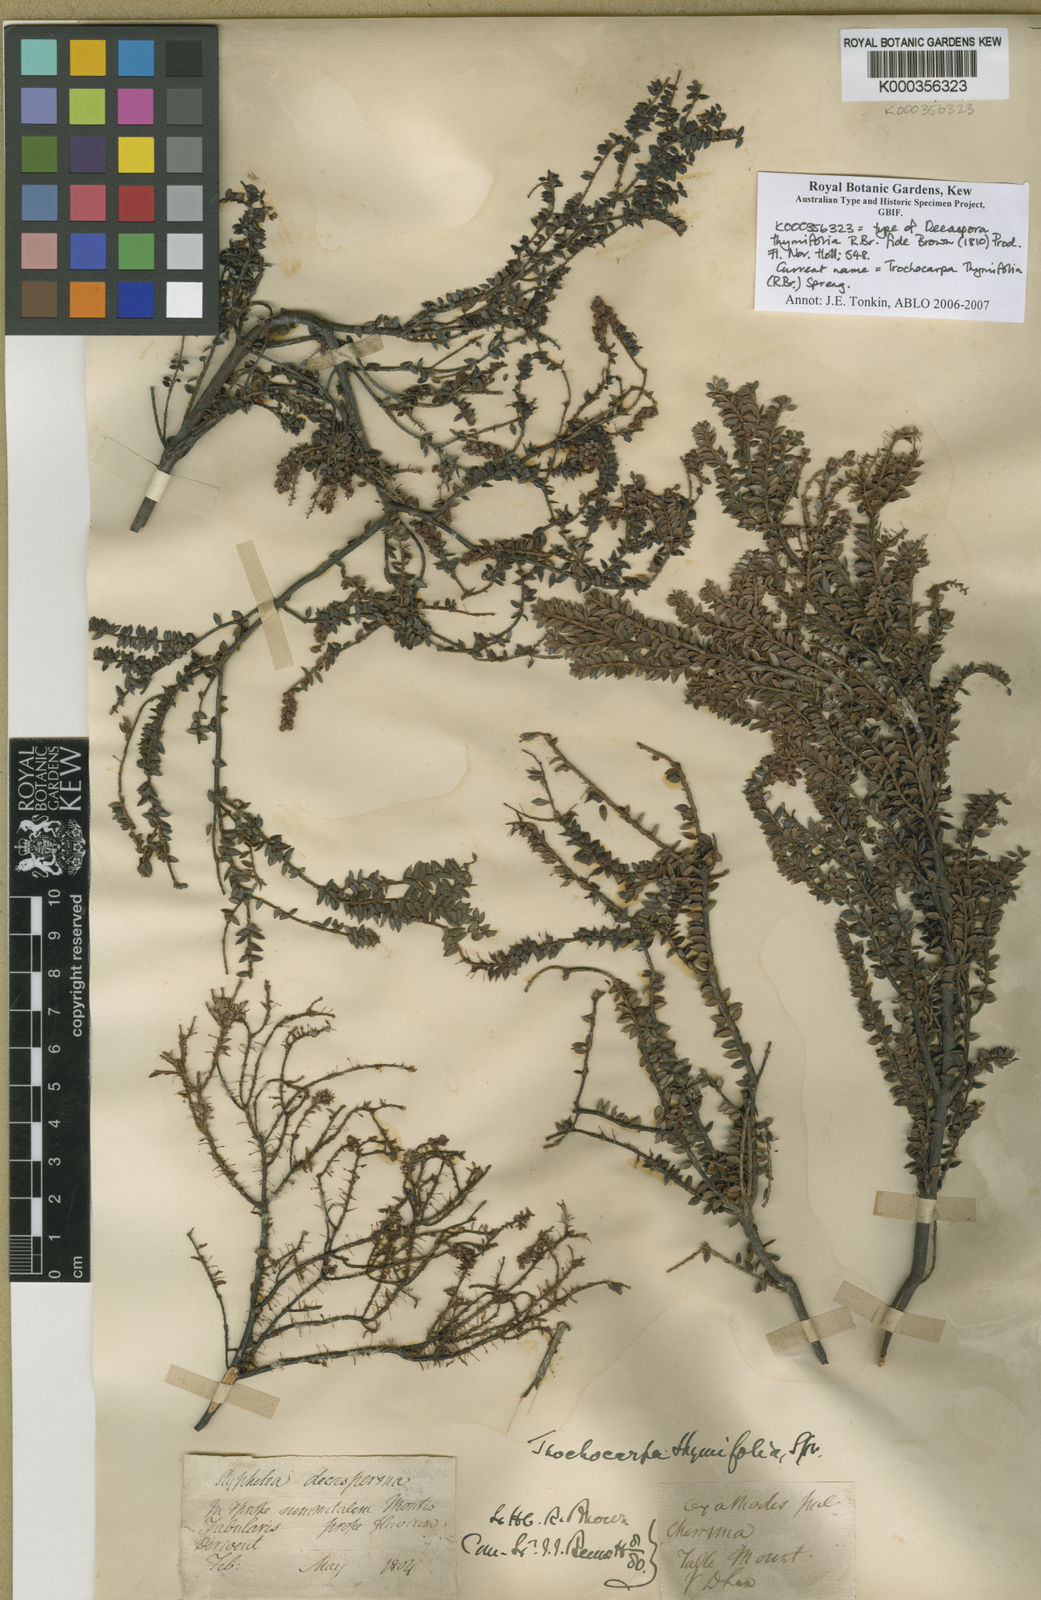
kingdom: Plantae
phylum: Tracheophyta
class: Magnoliopsida
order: Ericales
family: Ericaceae
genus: Trochocarpa
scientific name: Trochocarpa thymifolia
